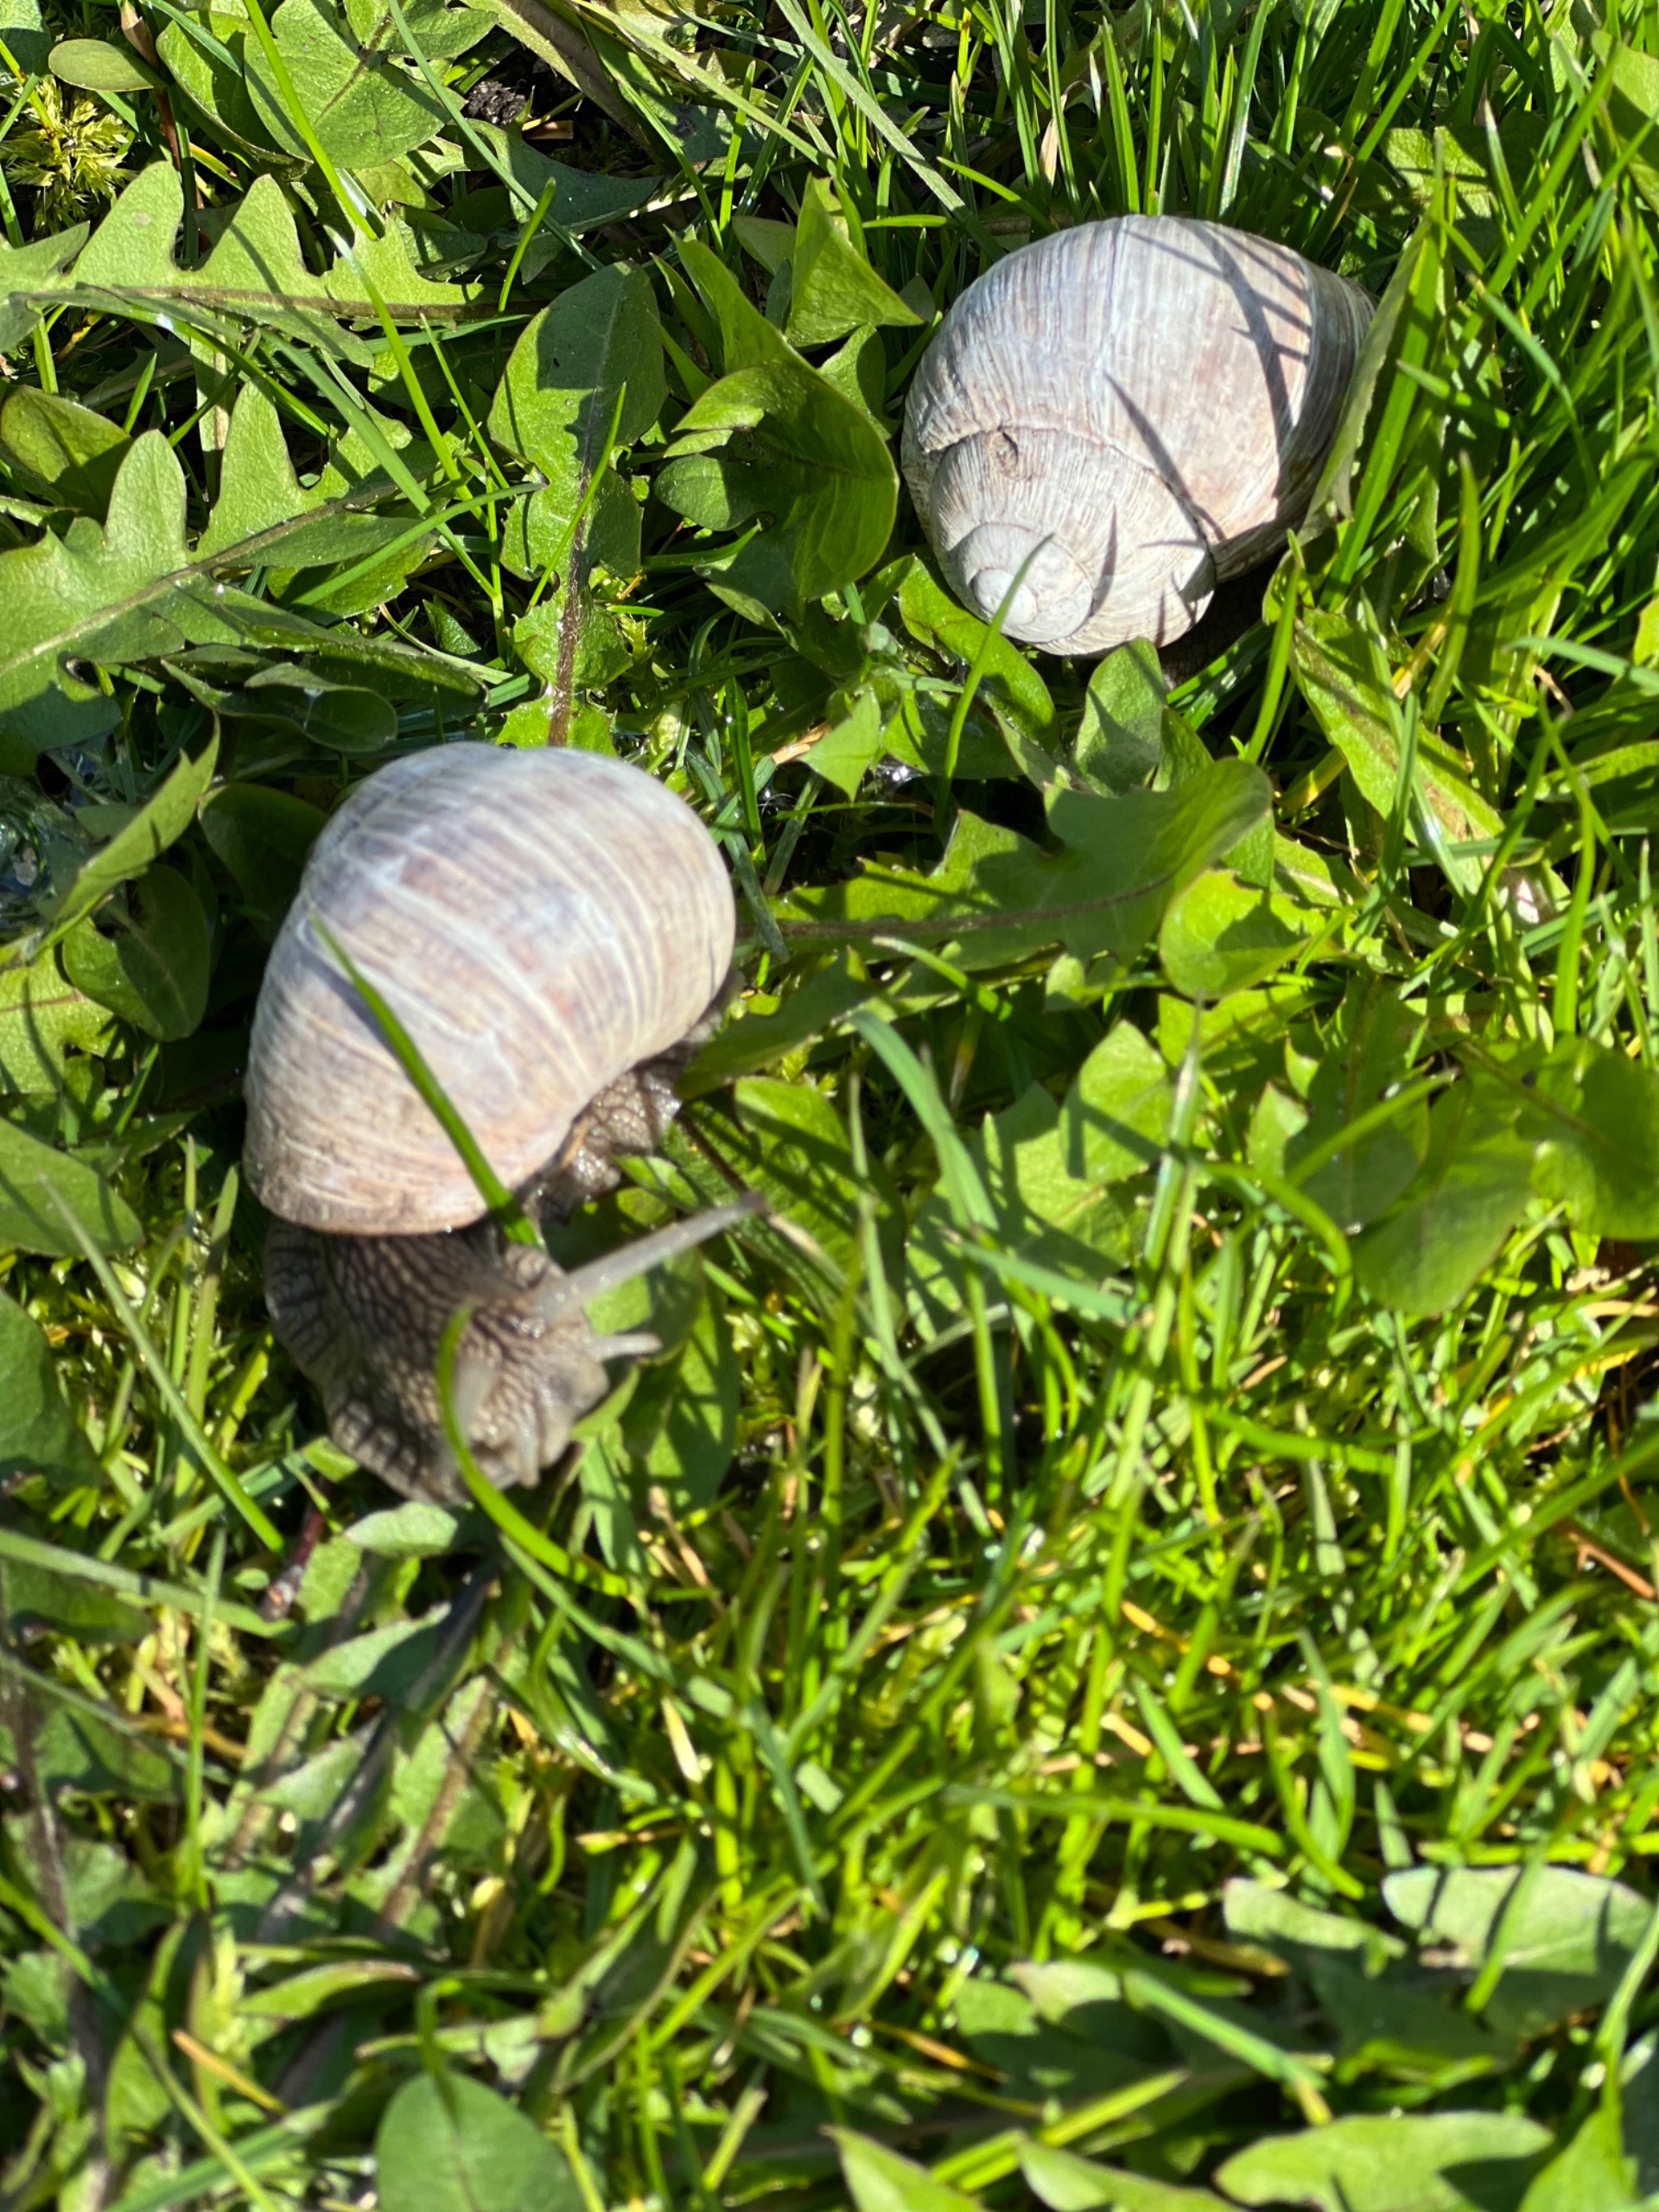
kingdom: Animalia
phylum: Mollusca
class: Gastropoda
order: Stylommatophora
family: Helicidae
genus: Helix
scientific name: Helix pomatia
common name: Vinbjergsnegl
